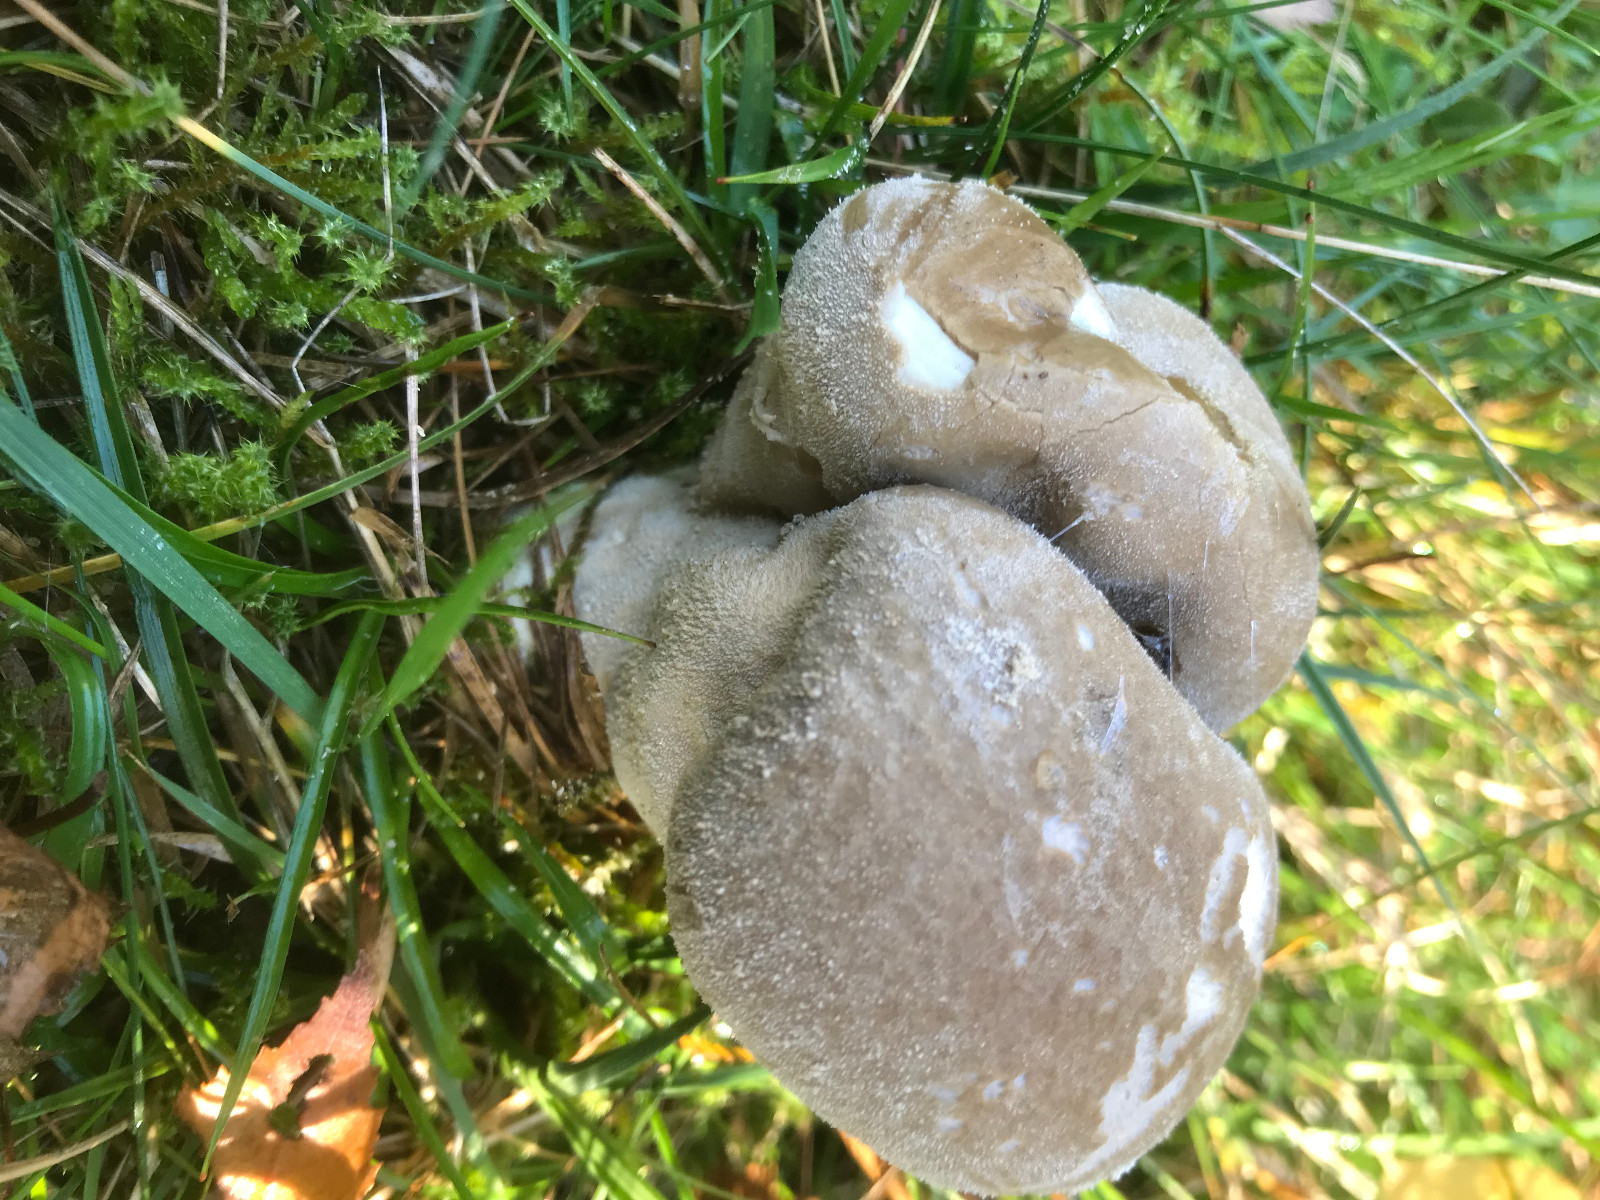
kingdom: Fungi
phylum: Basidiomycota
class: Agaricomycetes
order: Agaricales
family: Lycoperdaceae
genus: Lycoperdon
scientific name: Lycoperdon excipuliforme
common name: højstokket støvbold
